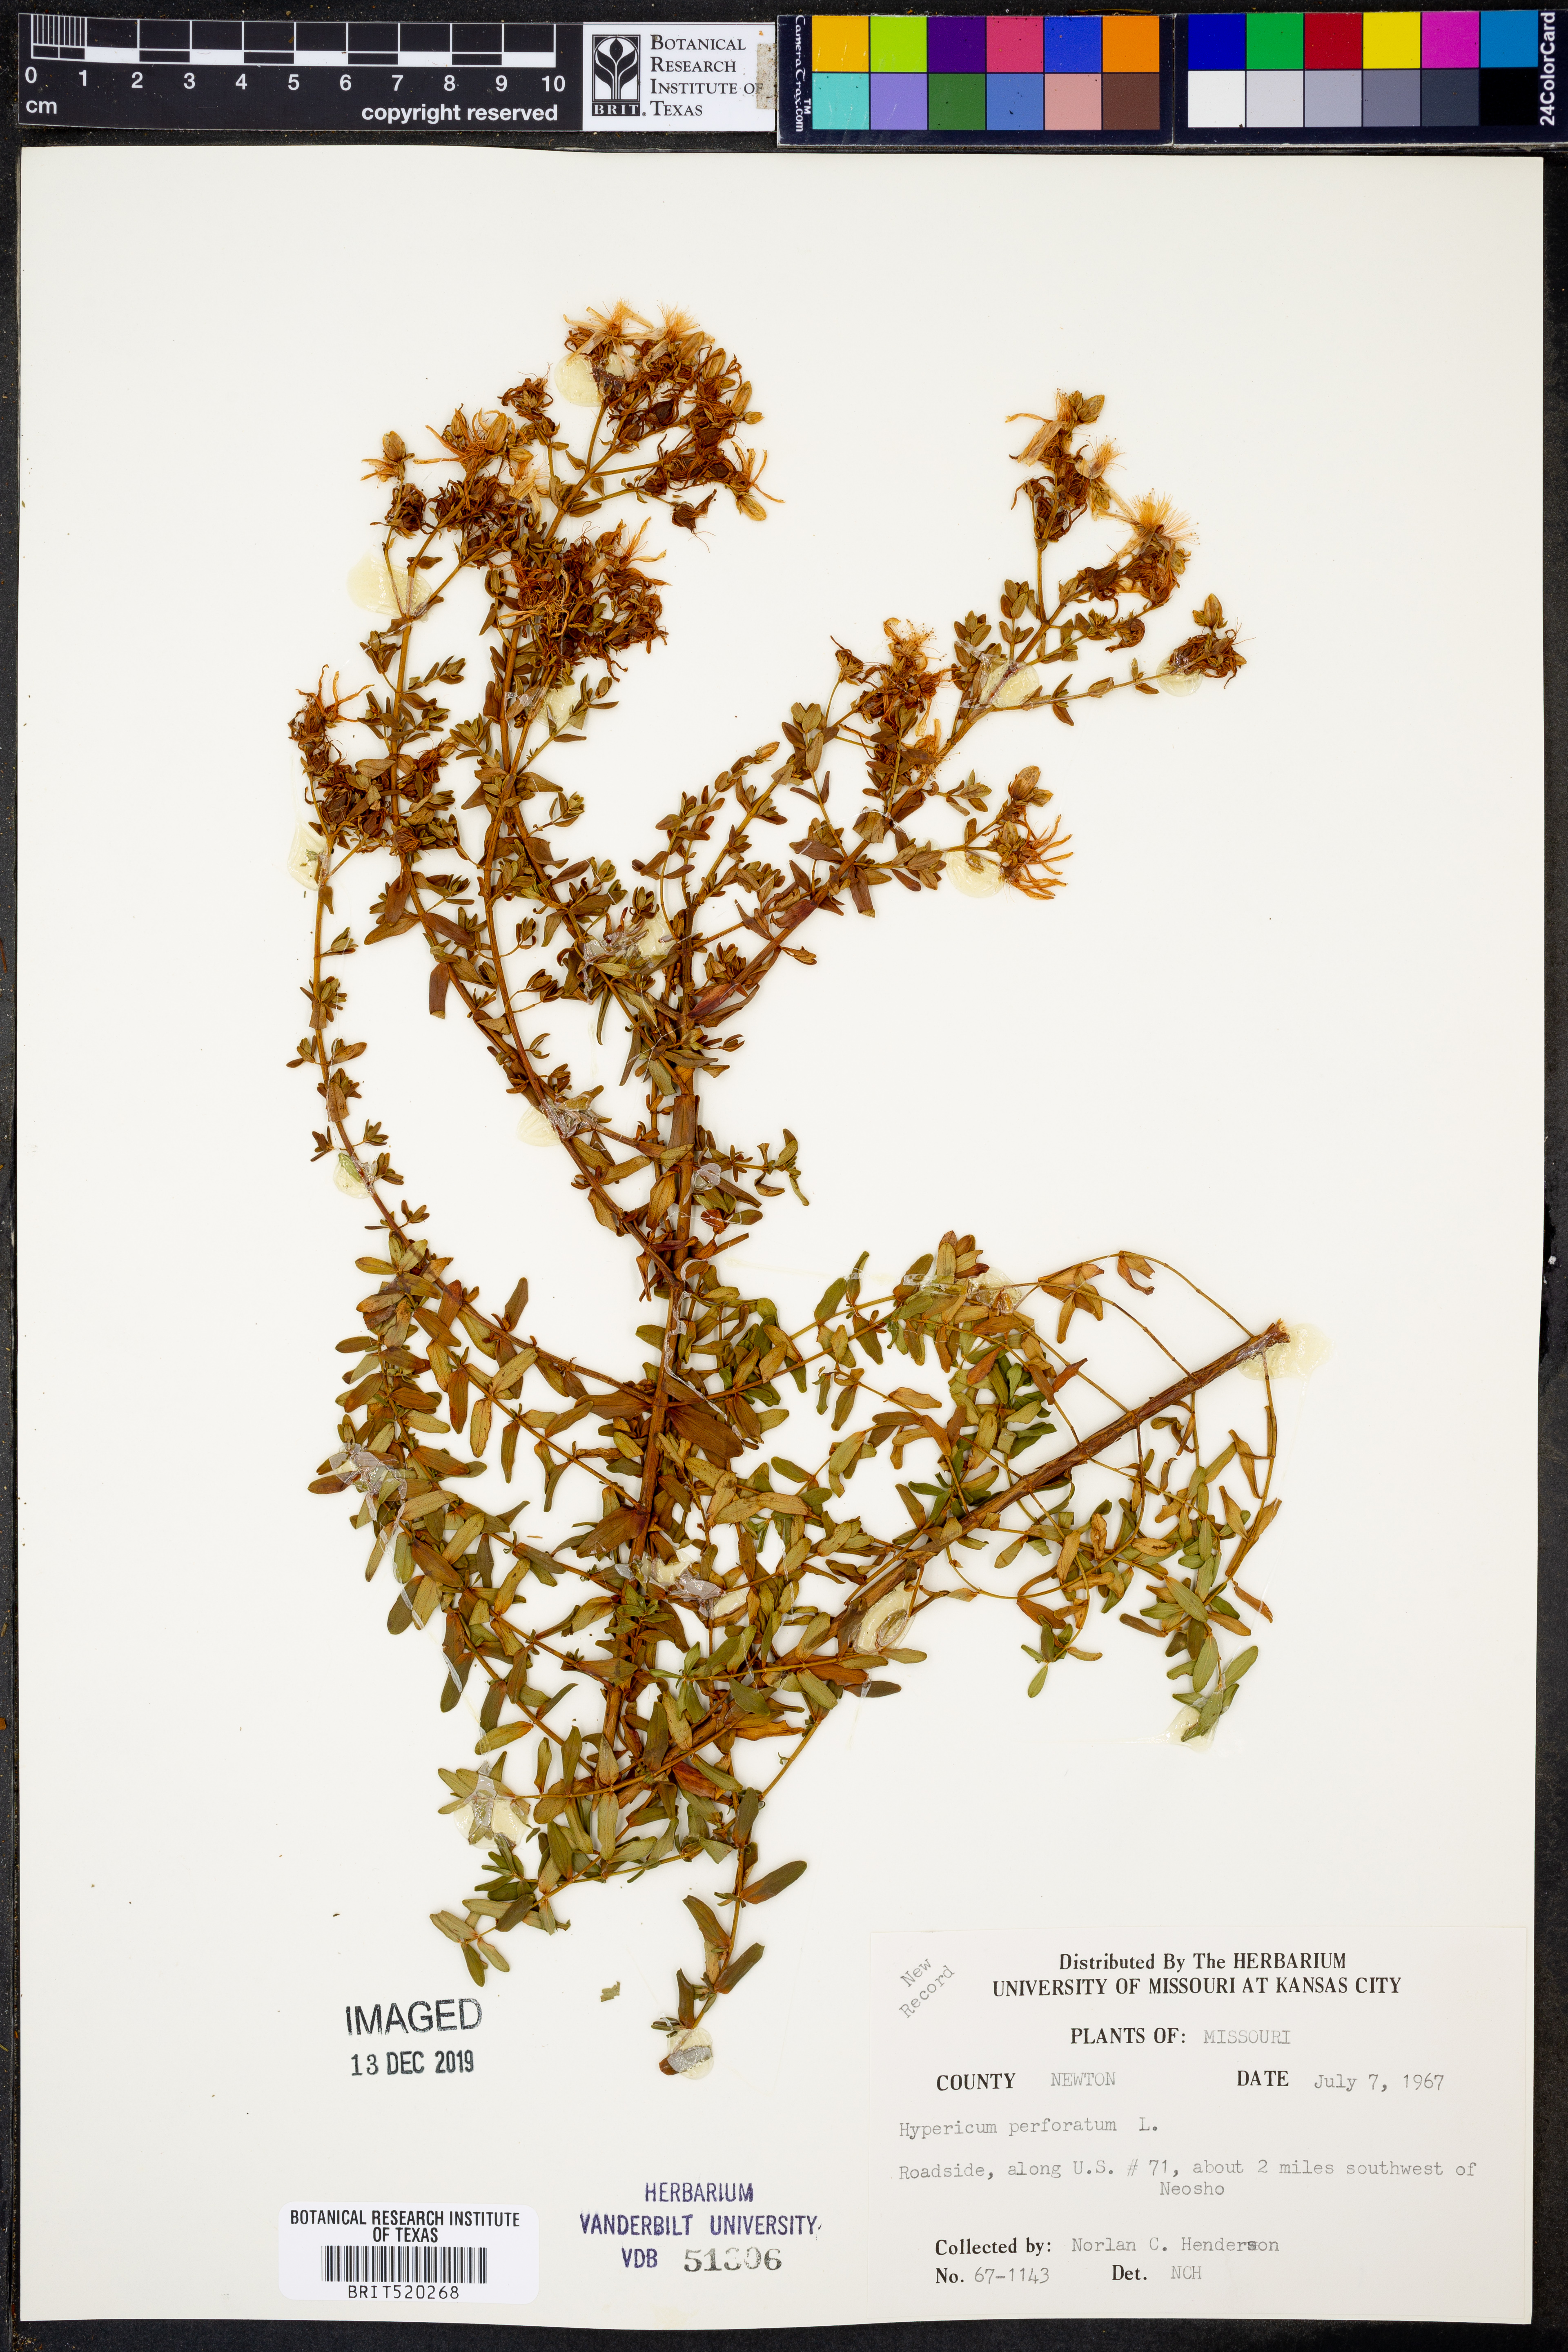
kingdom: Plantae
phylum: Tracheophyta
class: Magnoliopsida
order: Malpighiales
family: Hypericaceae
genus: Hypericum
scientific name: Hypericum perforatum
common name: Common st. johnswort
